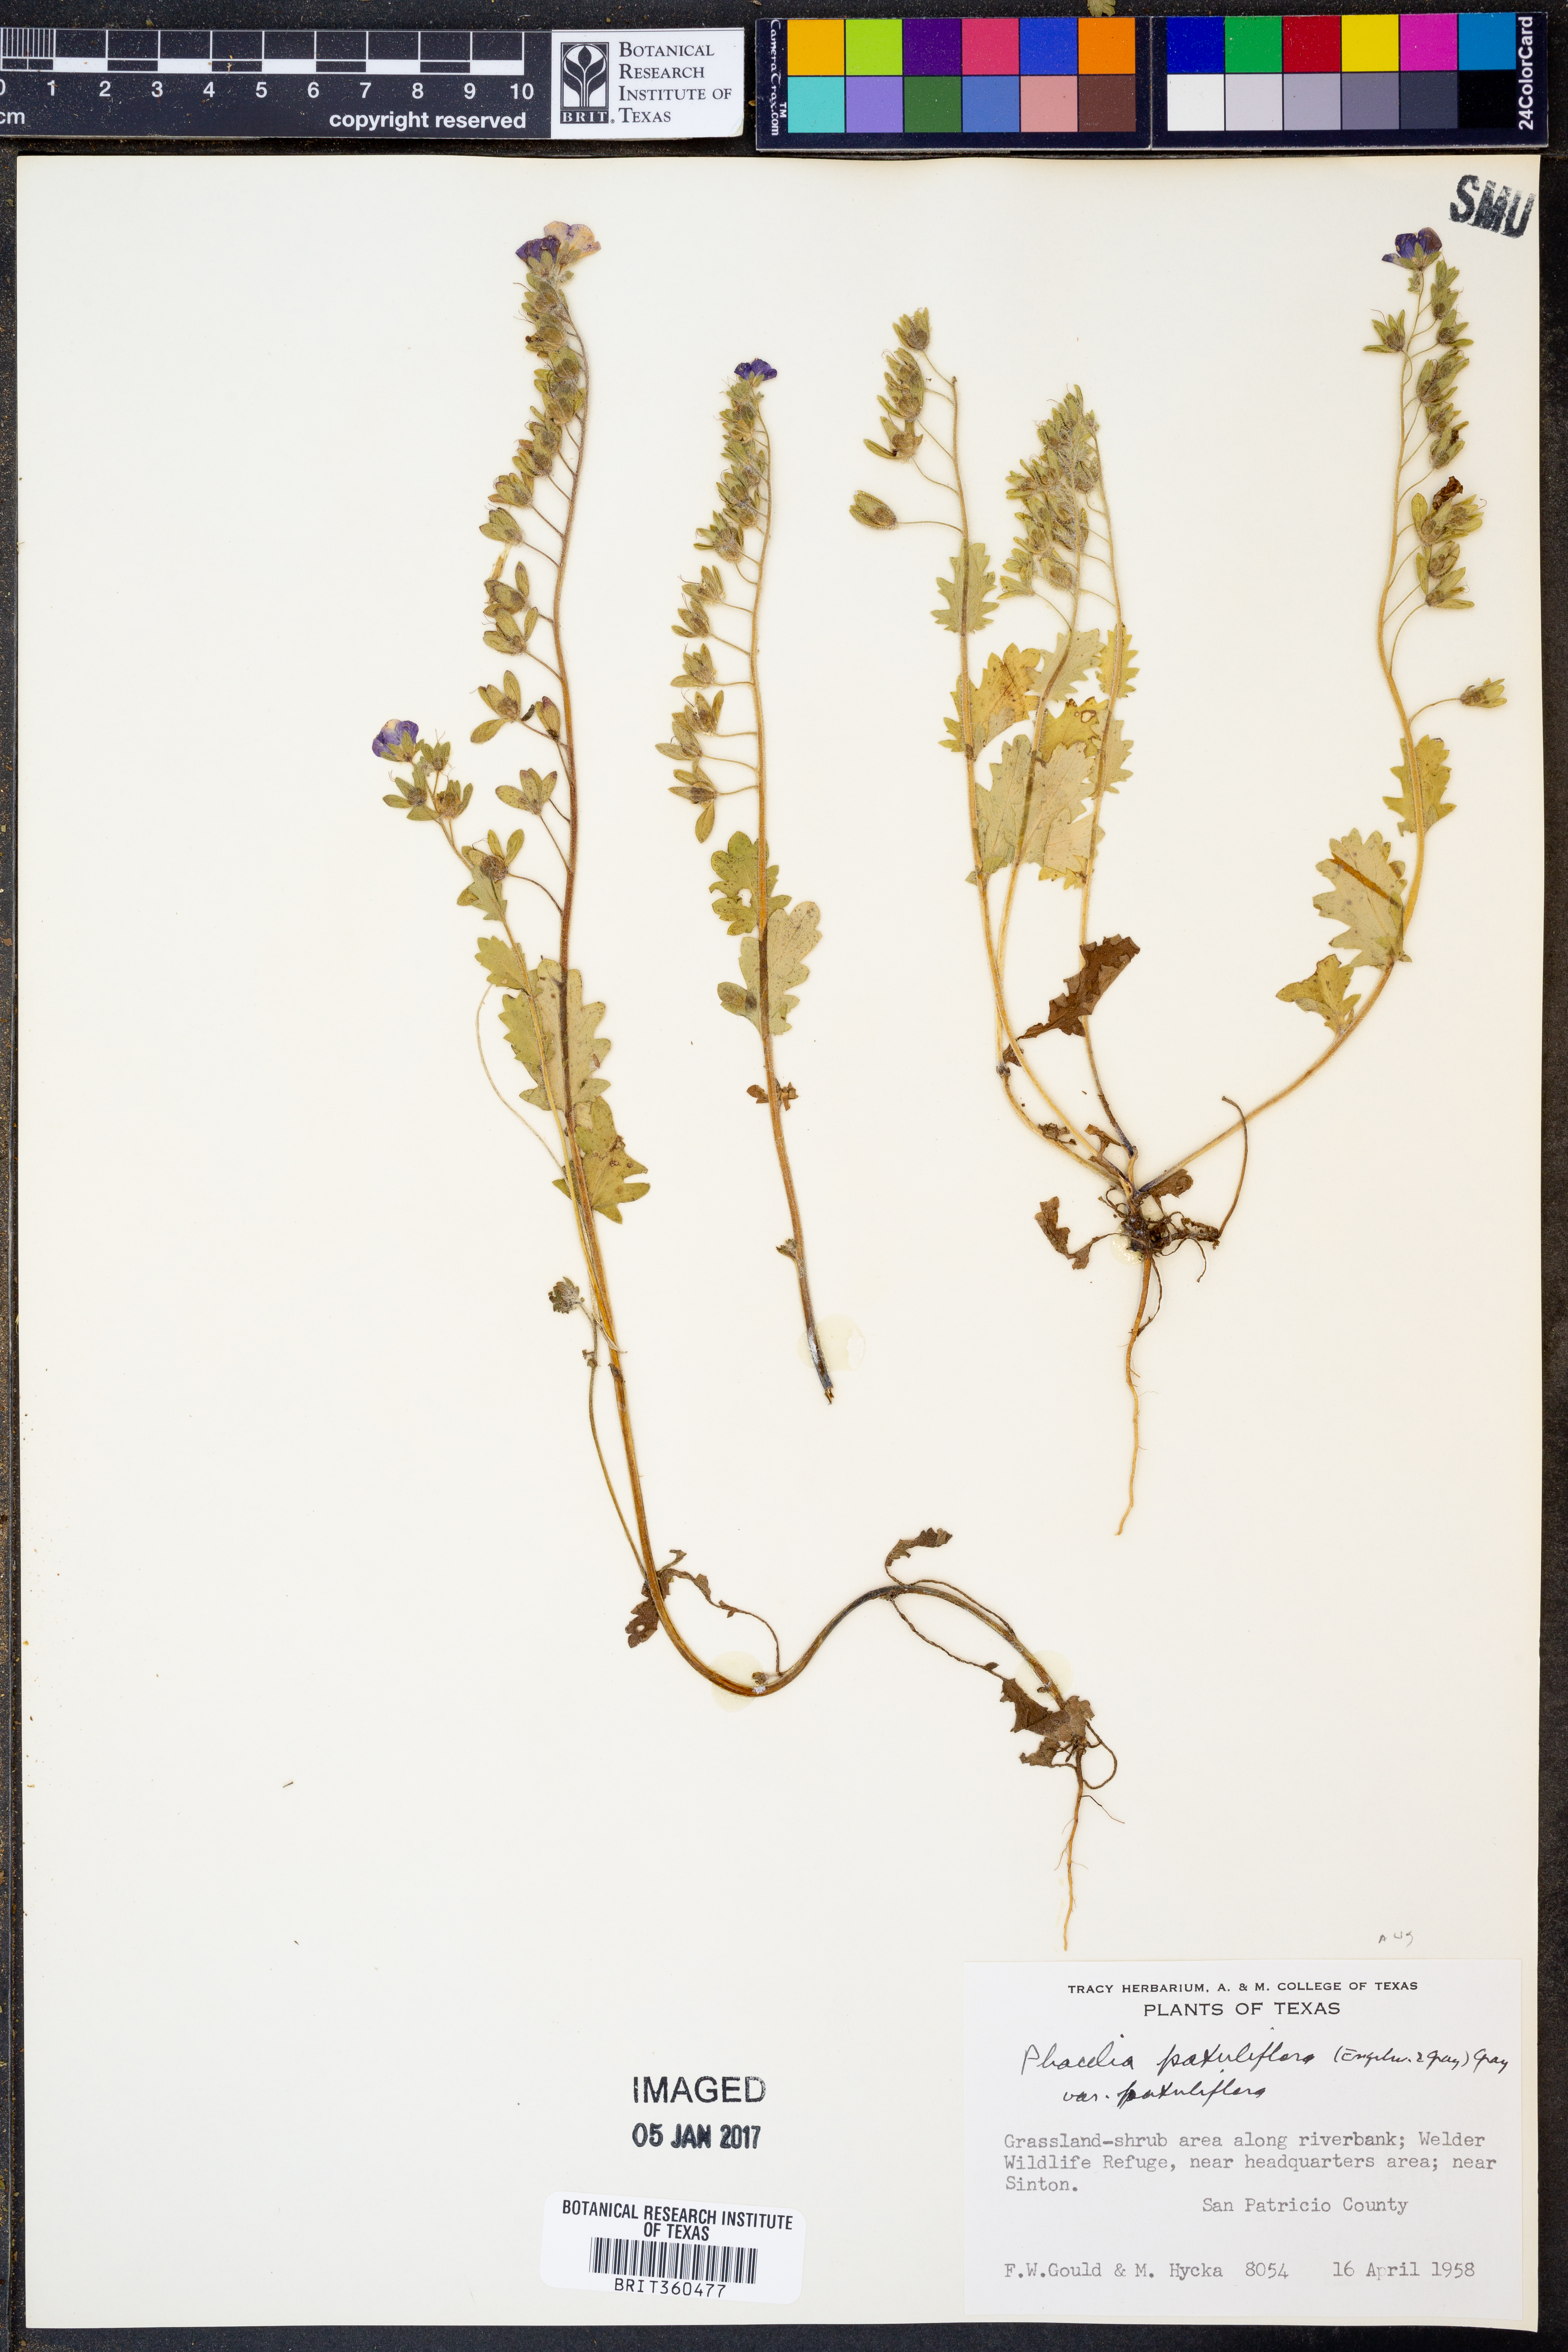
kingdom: Plantae
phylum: Tracheophyta
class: Magnoliopsida
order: Boraginales
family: Hydrophyllaceae
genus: Phacelia
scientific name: Phacelia patuliflora
